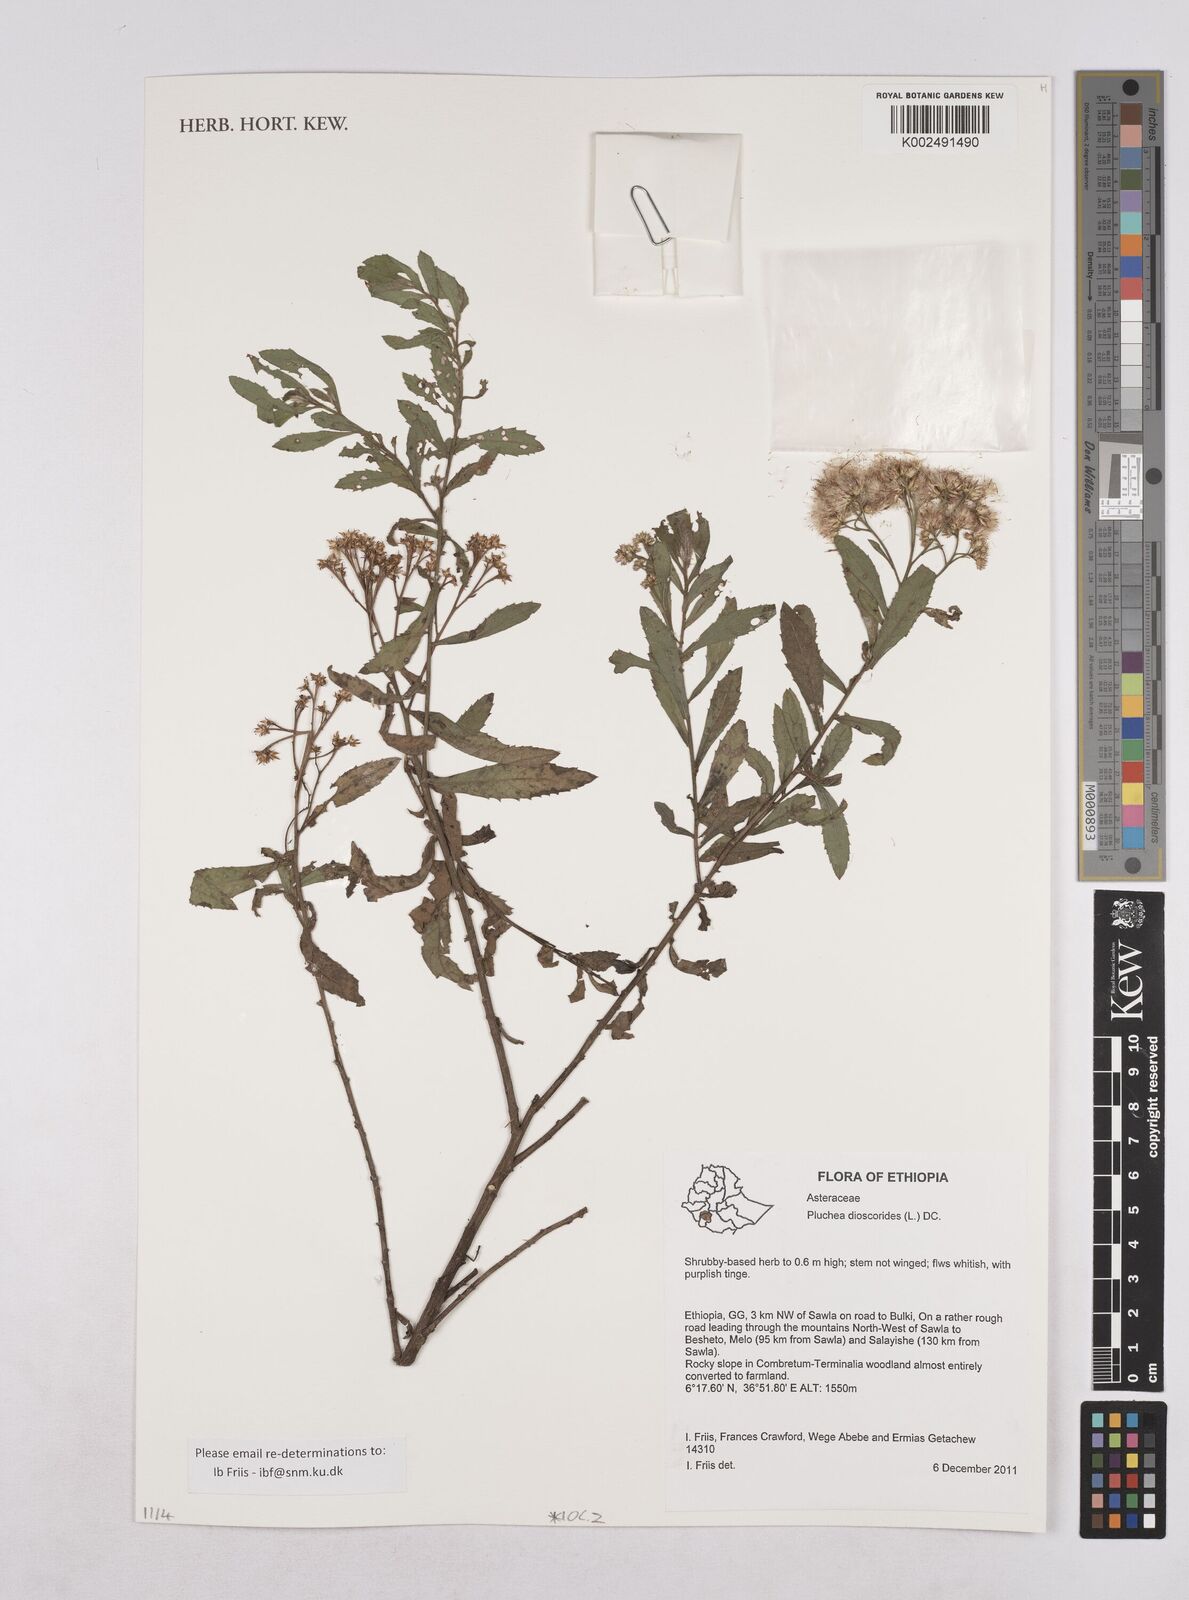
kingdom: Plantae
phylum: Tracheophyta
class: Magnoliopsida
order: Asterales
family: Asteraceae
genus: Pluchea
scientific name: Pluchea dioscoridis
